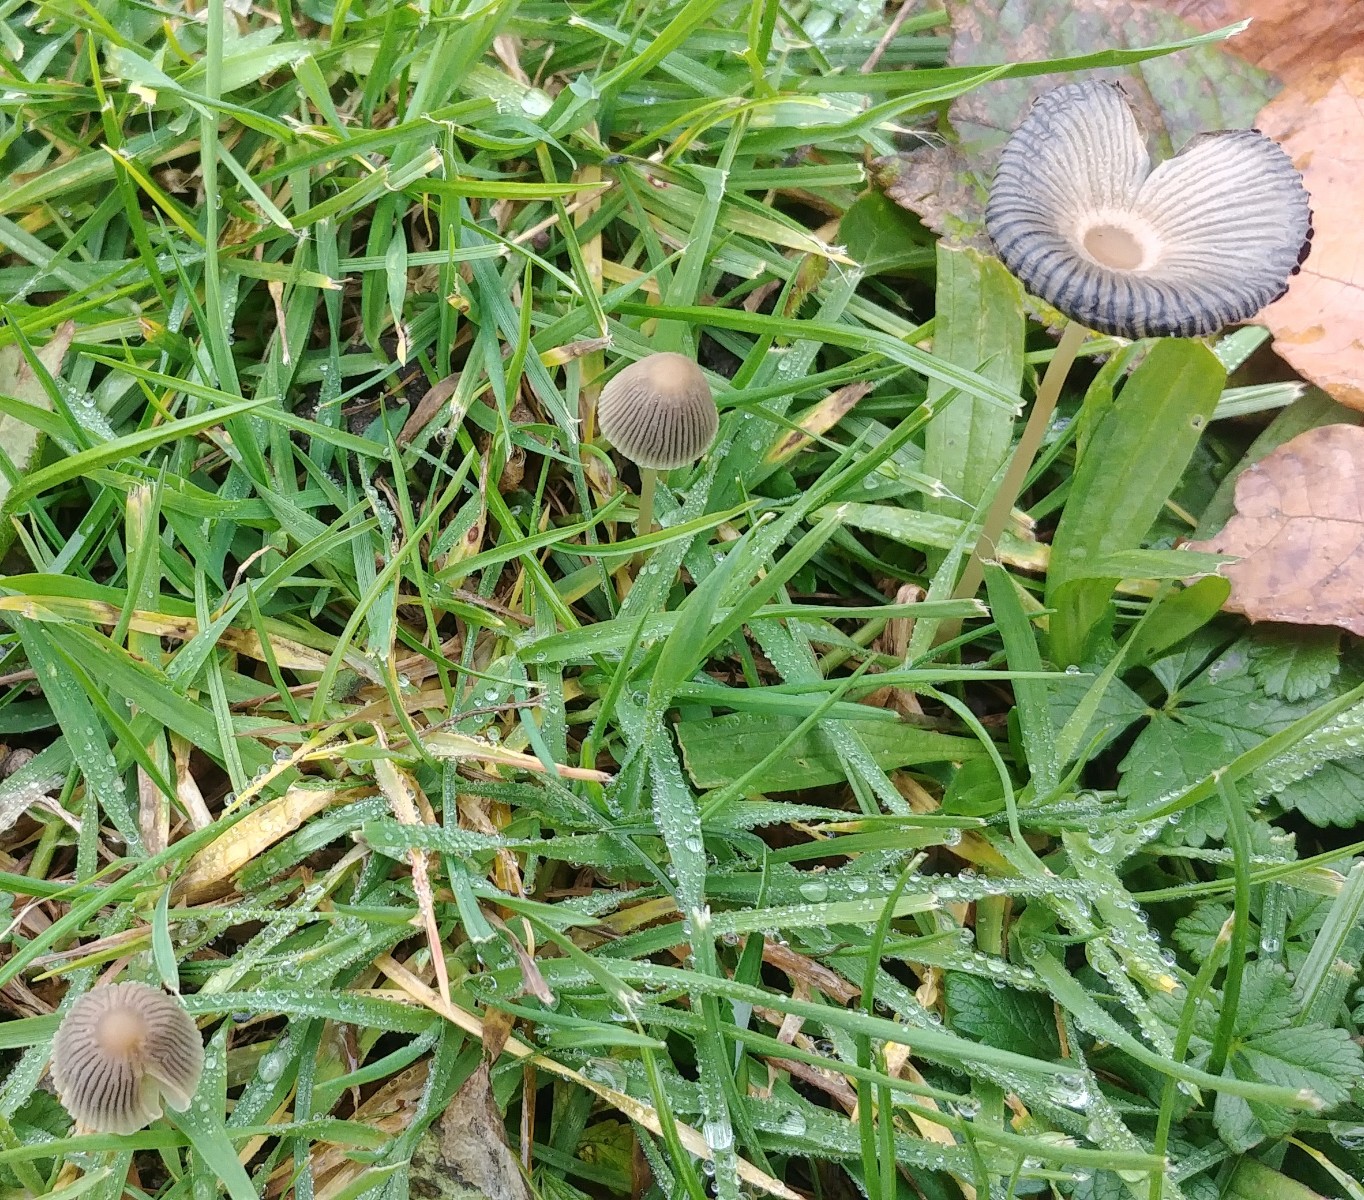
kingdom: Fungi
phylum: Basidiomycota
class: Agaricomycetes
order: Agaricales
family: Psathyrellaceae
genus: Parasola
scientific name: Parasola
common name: hjulhat
